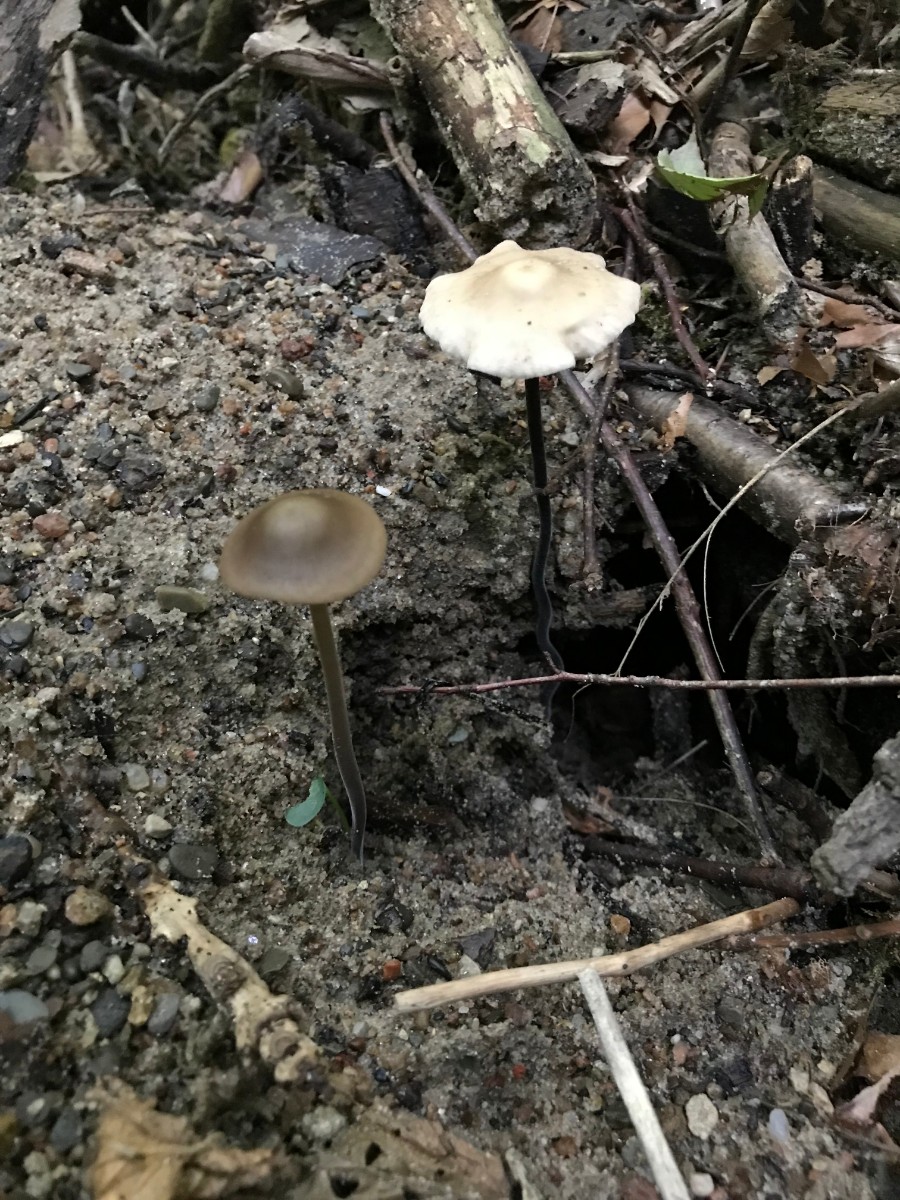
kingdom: Fungi
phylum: Basidiomycota
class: Agaricomycetes
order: Agaricales
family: Omphalotaceae
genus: Mycetinis
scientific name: Mycetinis alliaceus
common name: stor løghat
